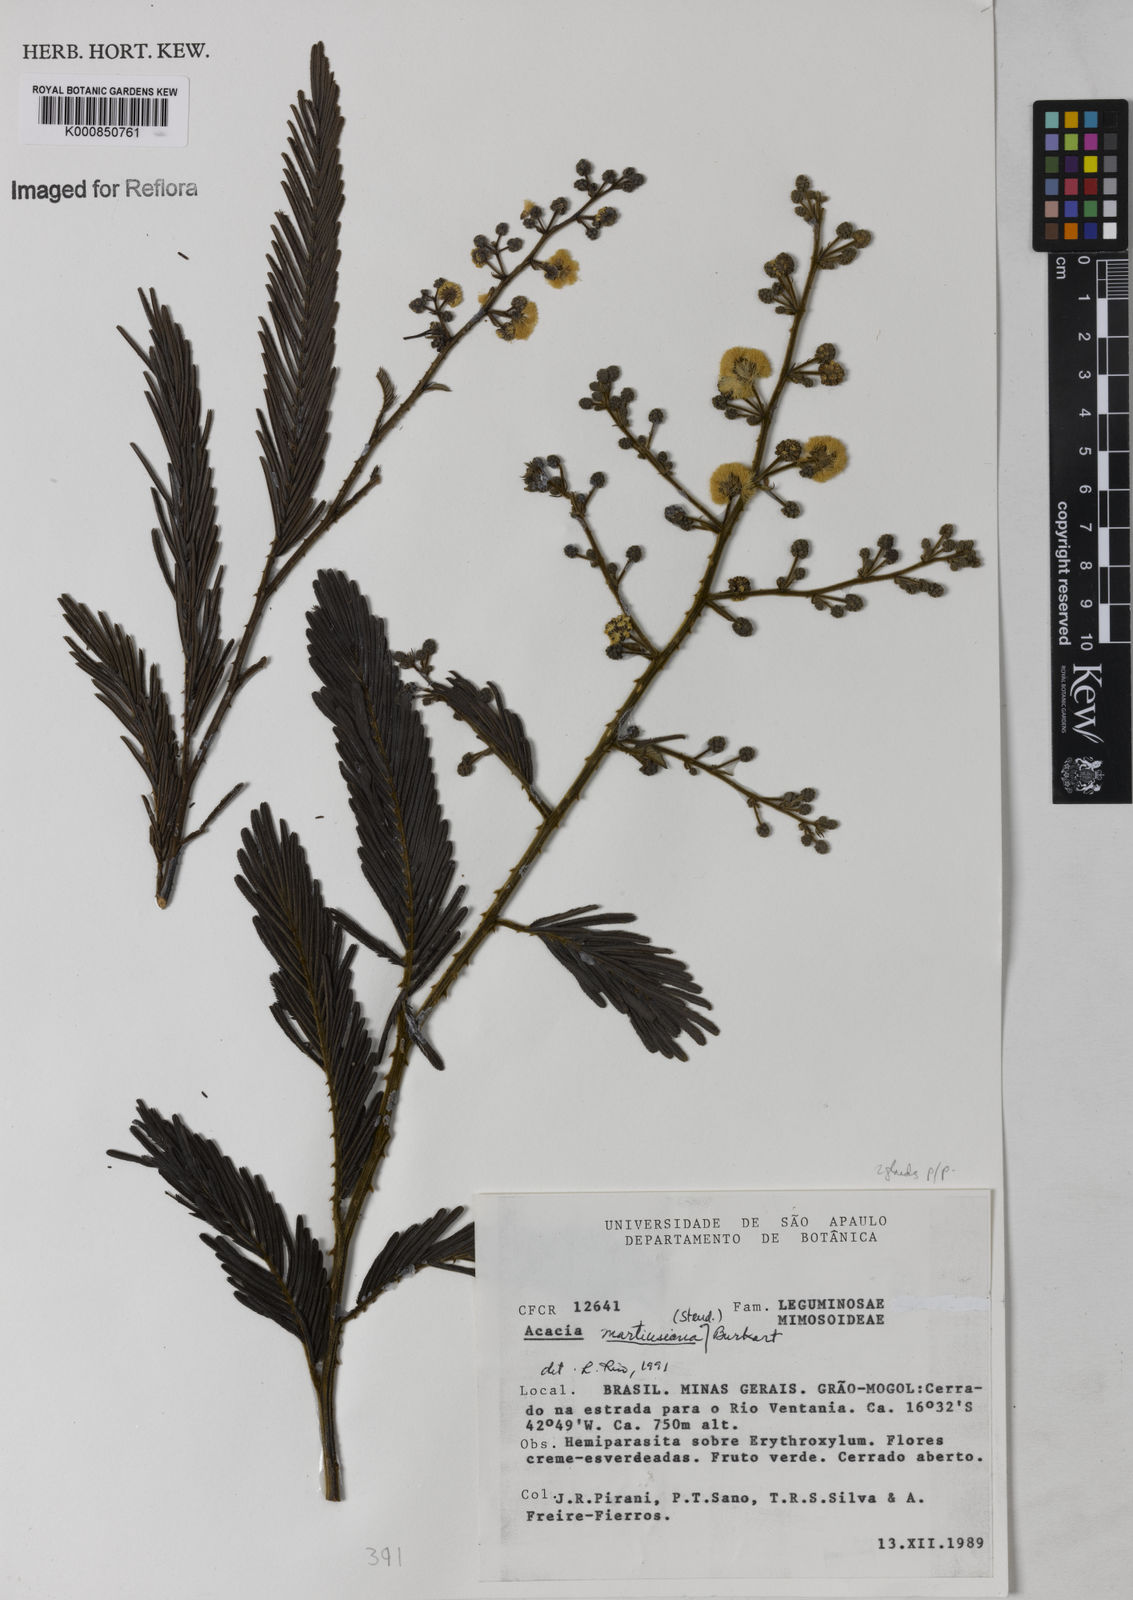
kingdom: Plantae
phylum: Tracheophyta
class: Magnoliopsida
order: Fabales
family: Fabaceae
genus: Senegalia
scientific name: Senegalia martiusiana
